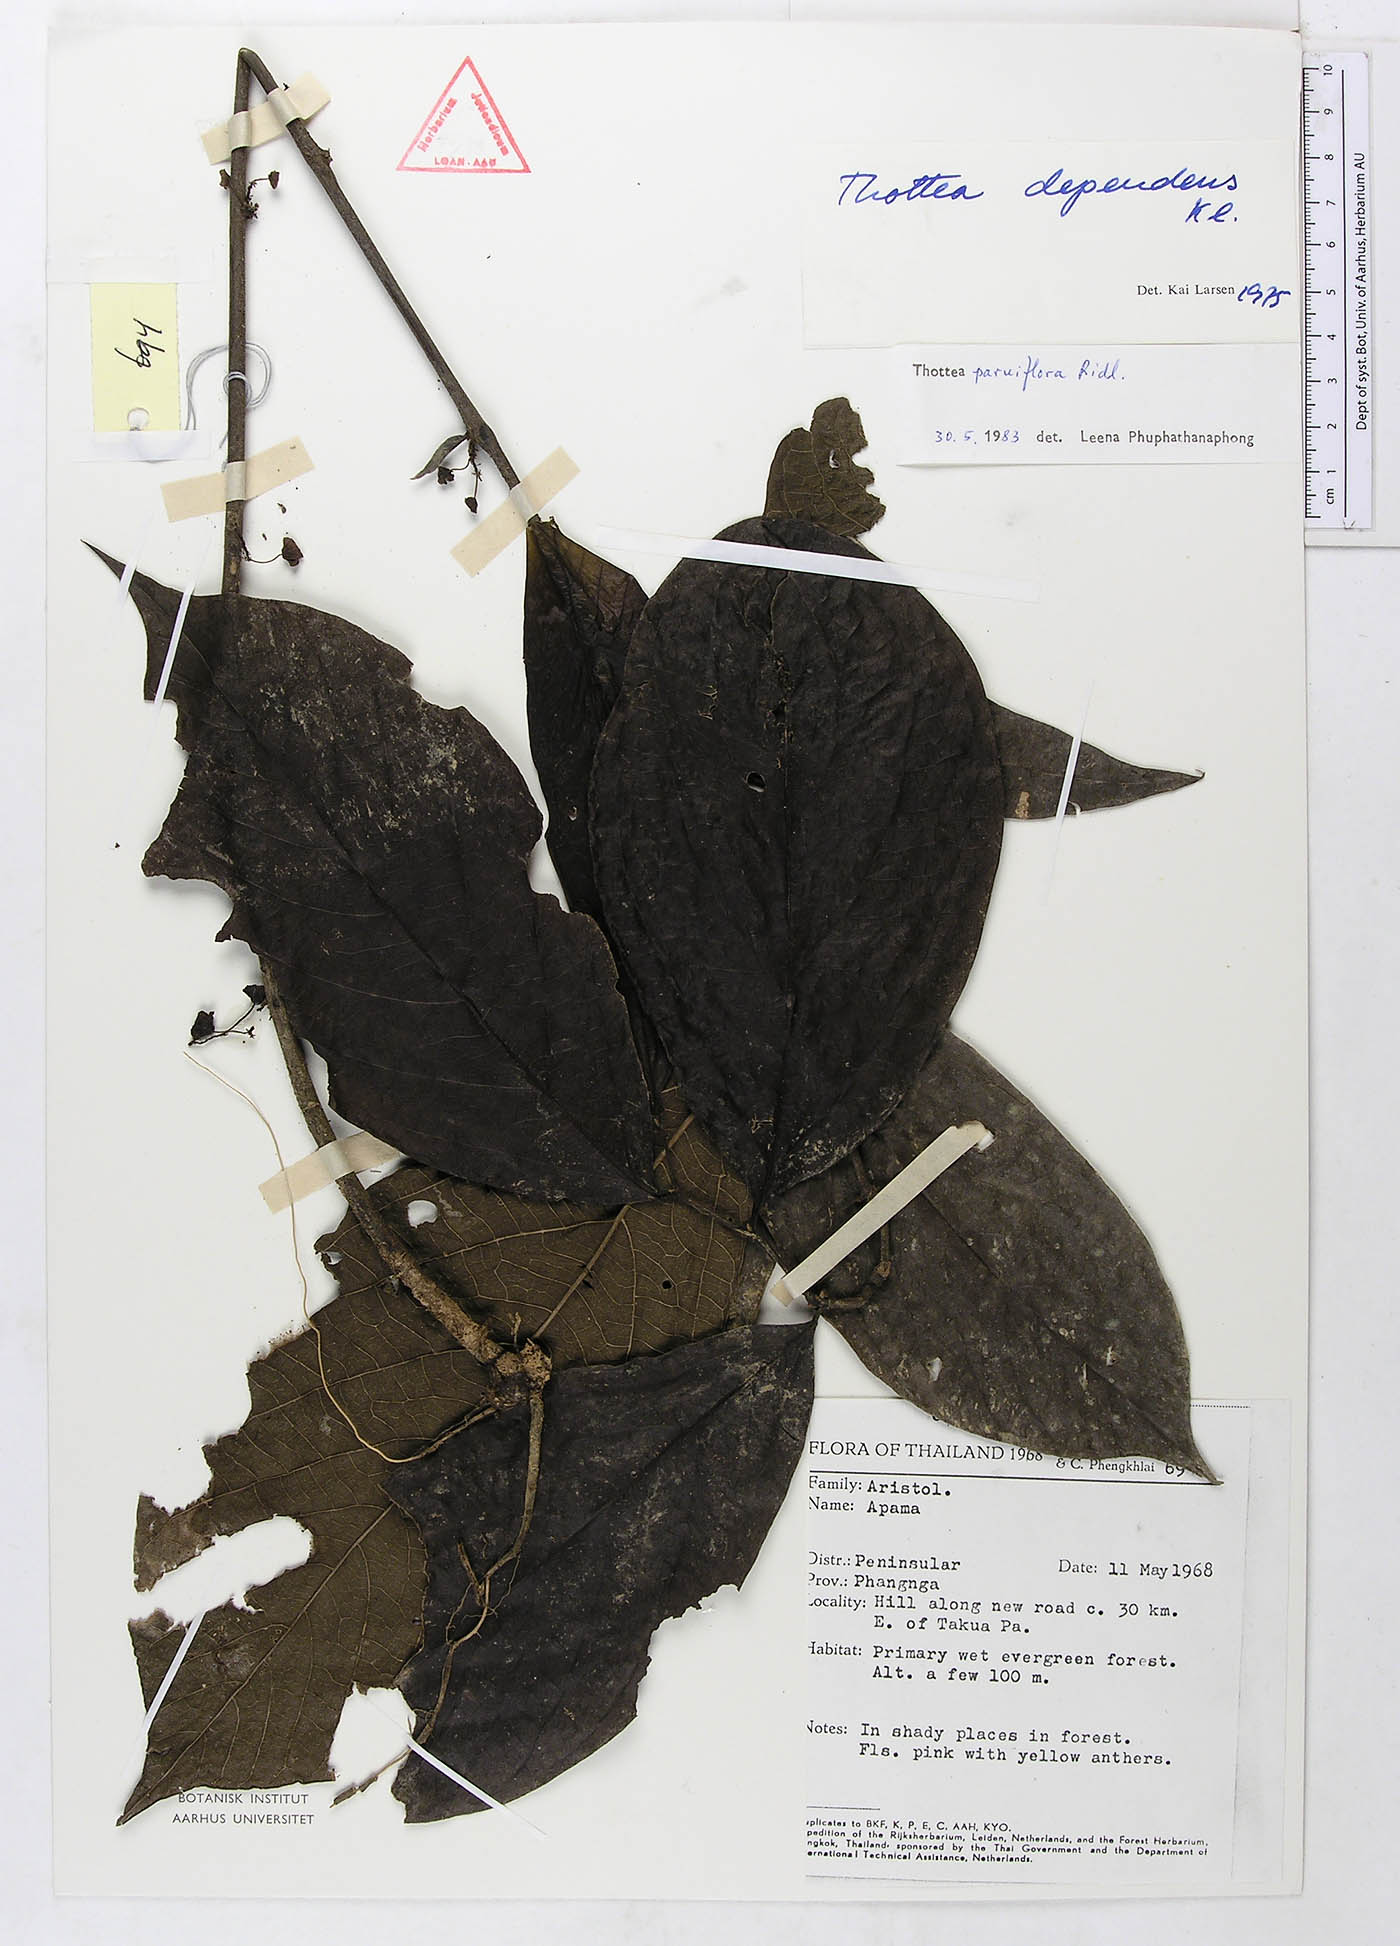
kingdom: Plantae
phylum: Tracheophyta
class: Magnoliopsida
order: Piperales
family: Aristolochiaceae
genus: Thottea
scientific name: Thottea parviflora
